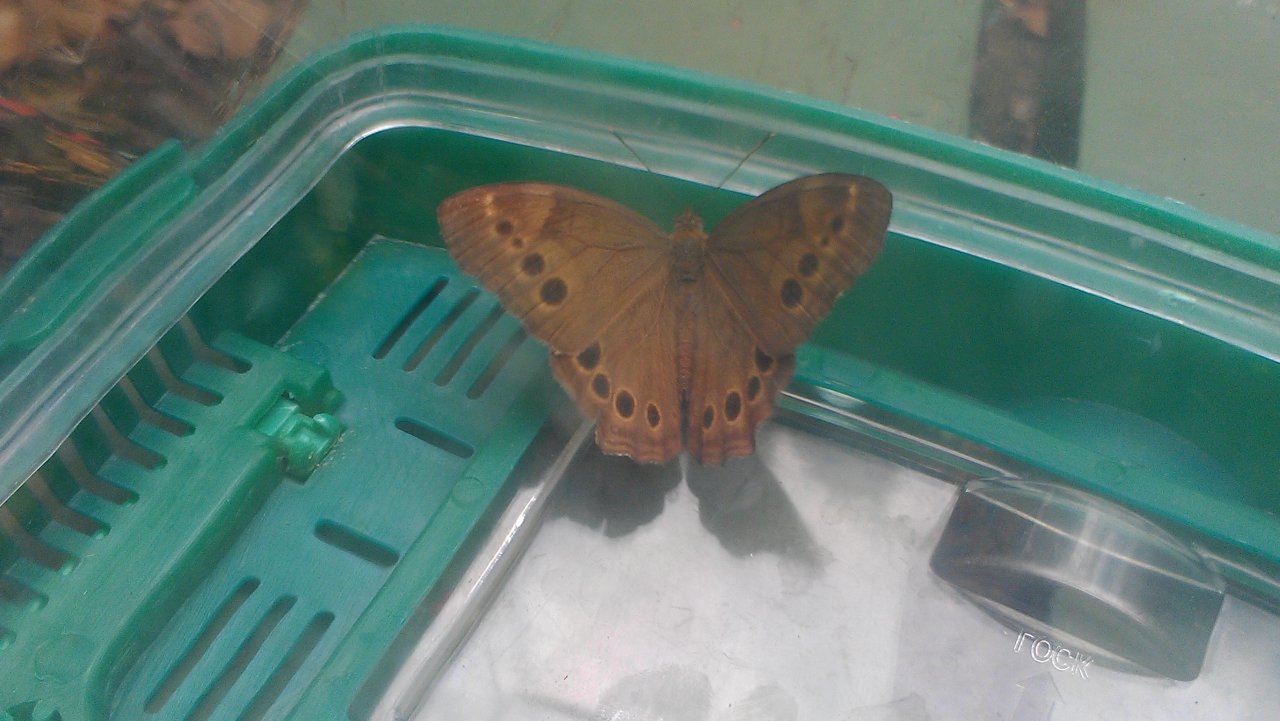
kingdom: Animalia
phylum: Arthropoda
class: Insecta
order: Lepidoptera
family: Nymphalidae
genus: Lethe
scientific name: Lethe anthedon
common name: Northern Pearly-Eye
